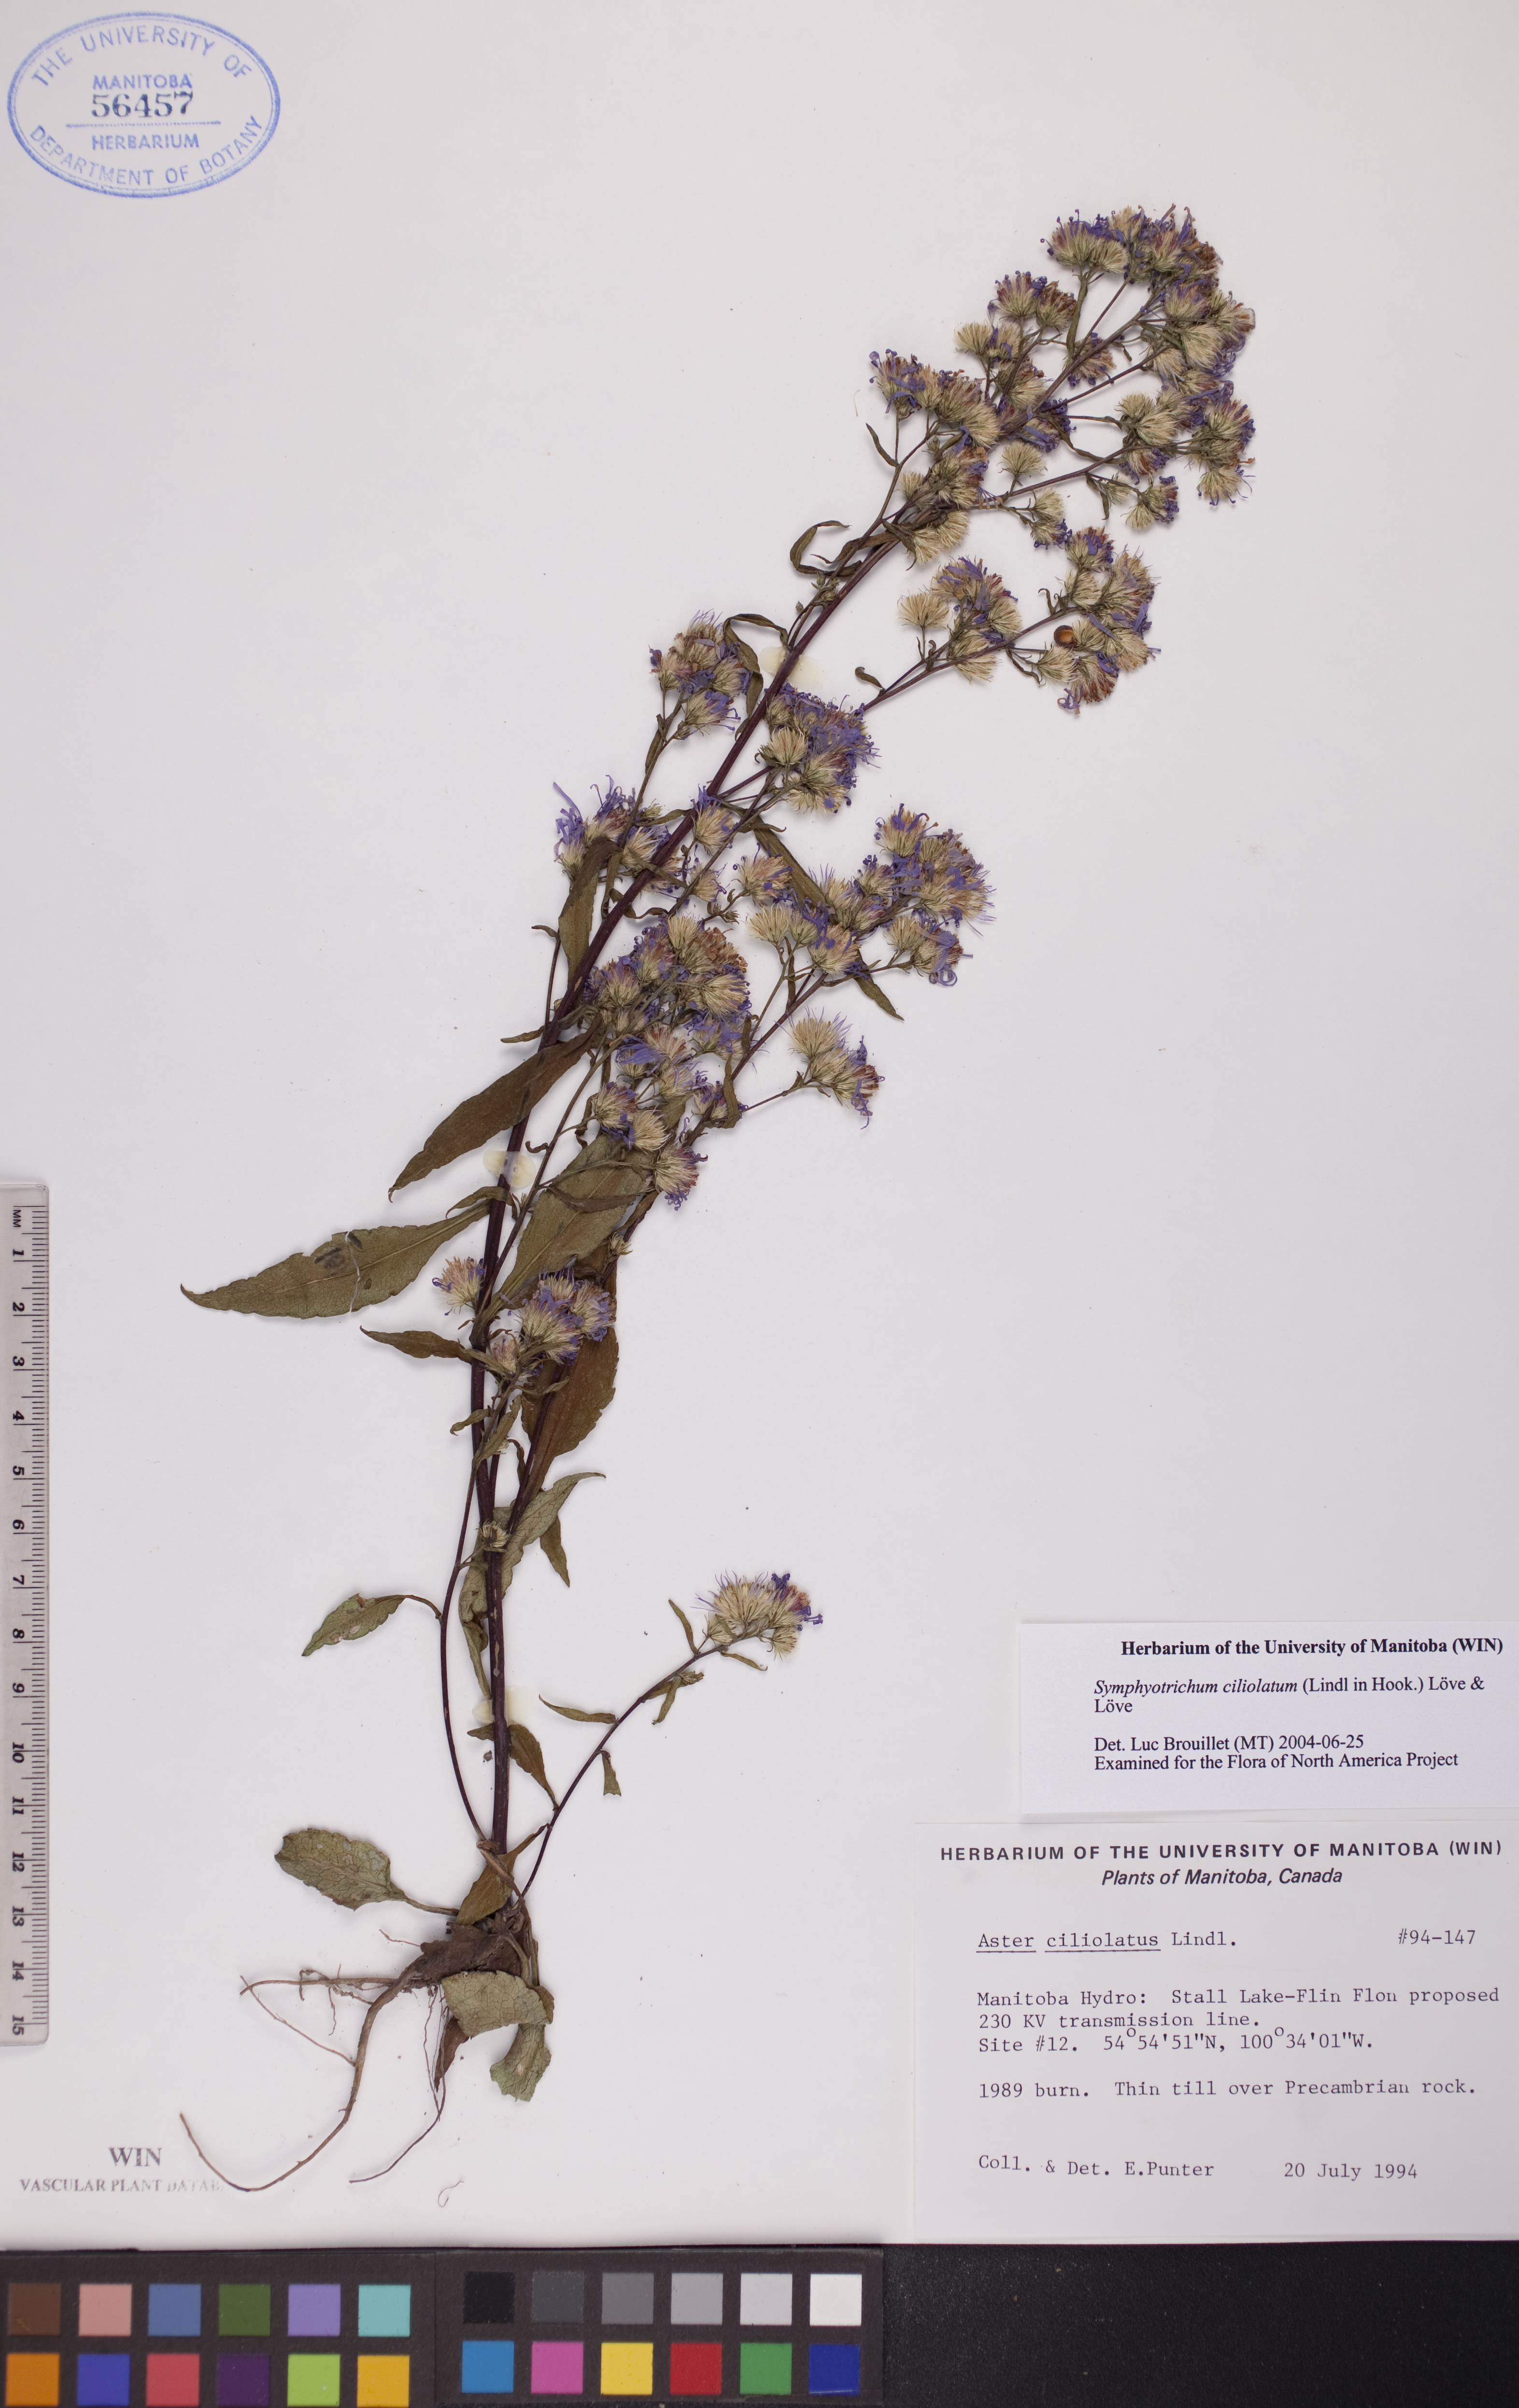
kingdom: Plantae
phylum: Tracheophyta
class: Magnoliopsida
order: Asterales
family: Asteraceae
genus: Symphyotrichum
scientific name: Symphyotrichum ciliolatum
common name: Fringed blue aster
